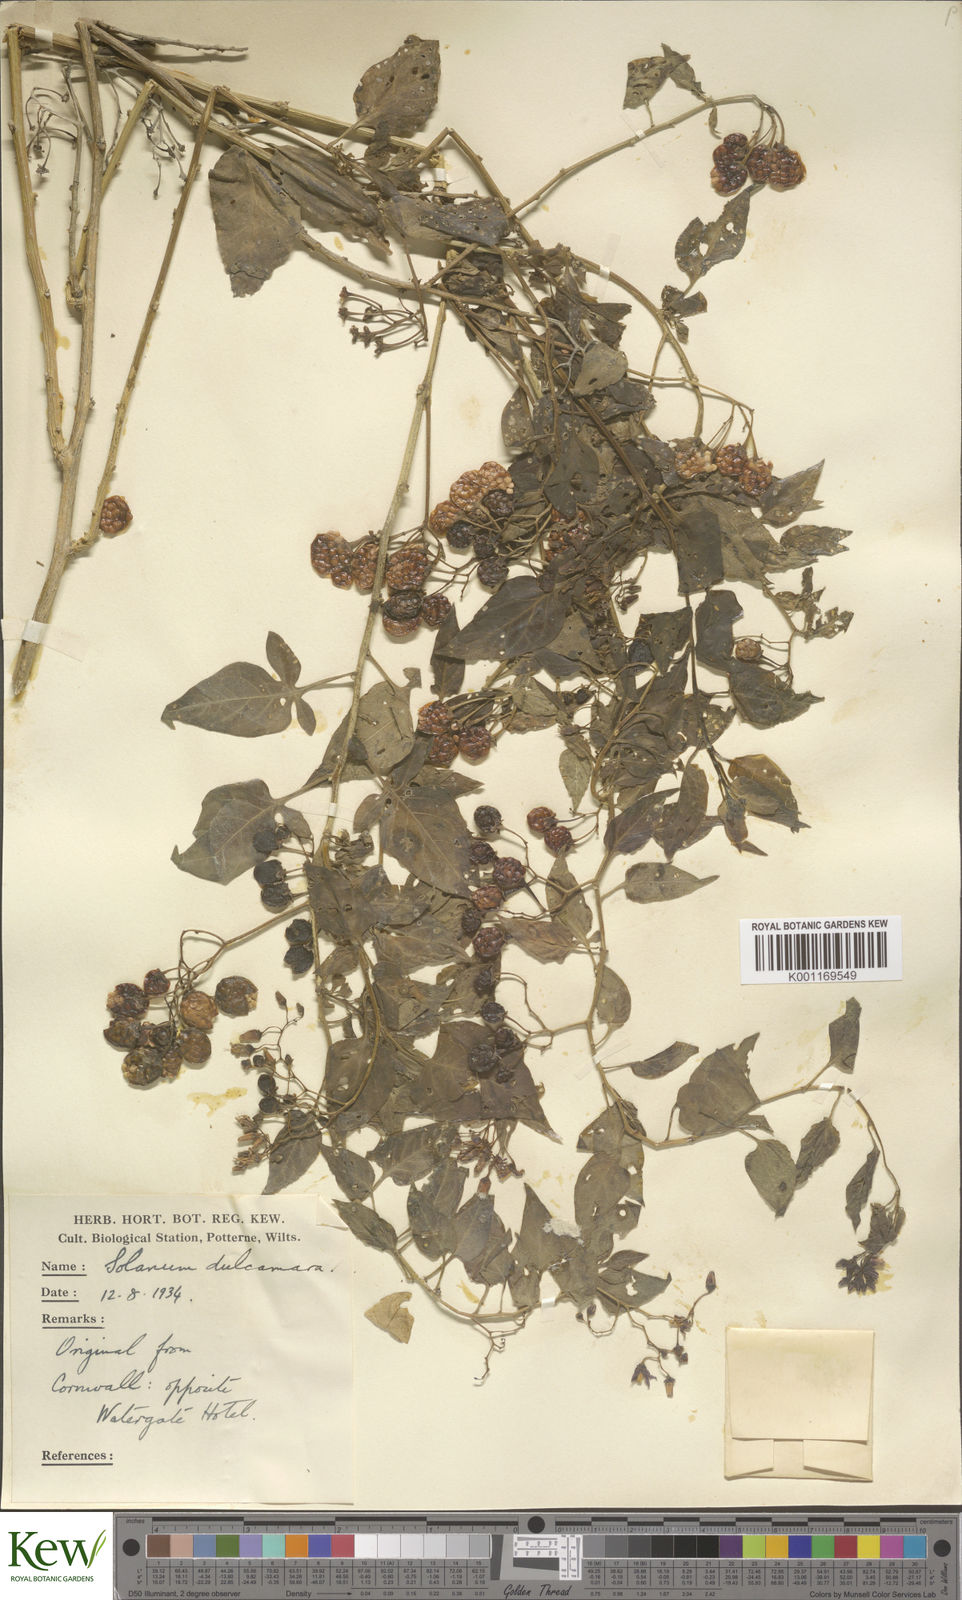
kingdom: Plantae
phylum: Tracheophyta
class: Magnoliopsida
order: Solanales
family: Solanaceae
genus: Solanum
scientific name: Solanum dulcamara
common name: Climbing nightshade
